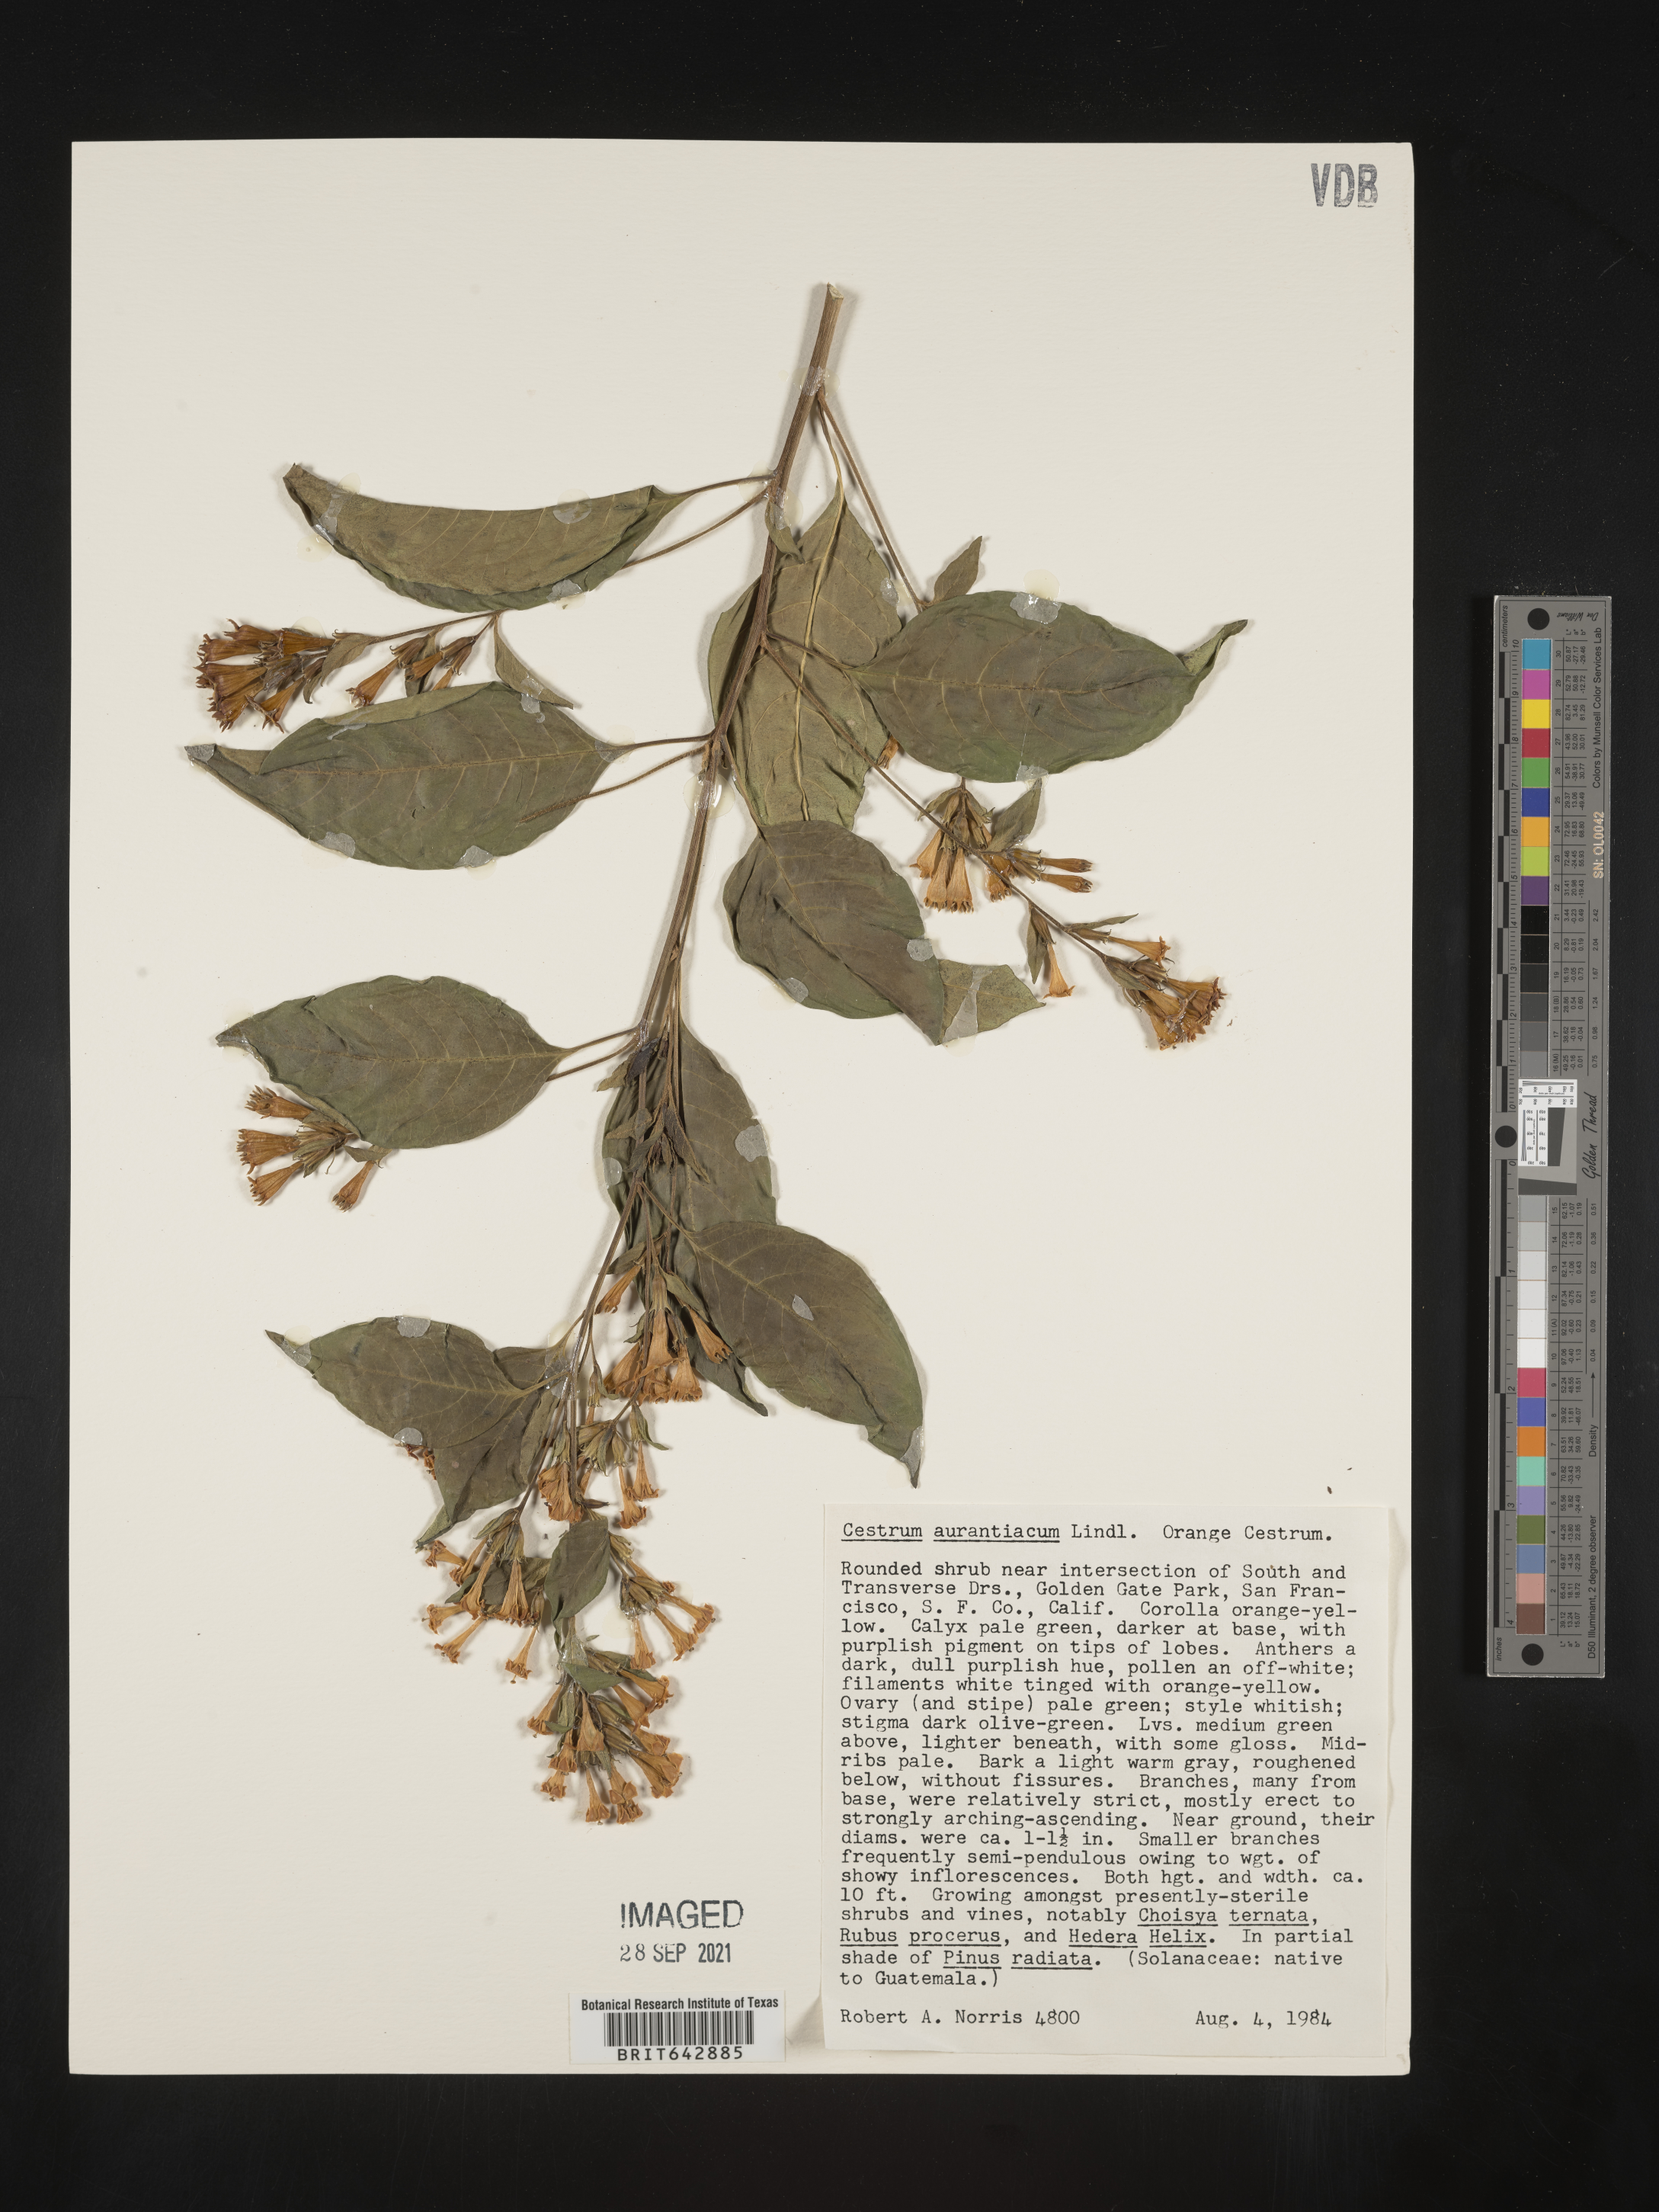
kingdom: Plantae
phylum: Tracheophyta
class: Magnoliopsida
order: Solanales
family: Solanaceae
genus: Cestrum
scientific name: Cestrum
